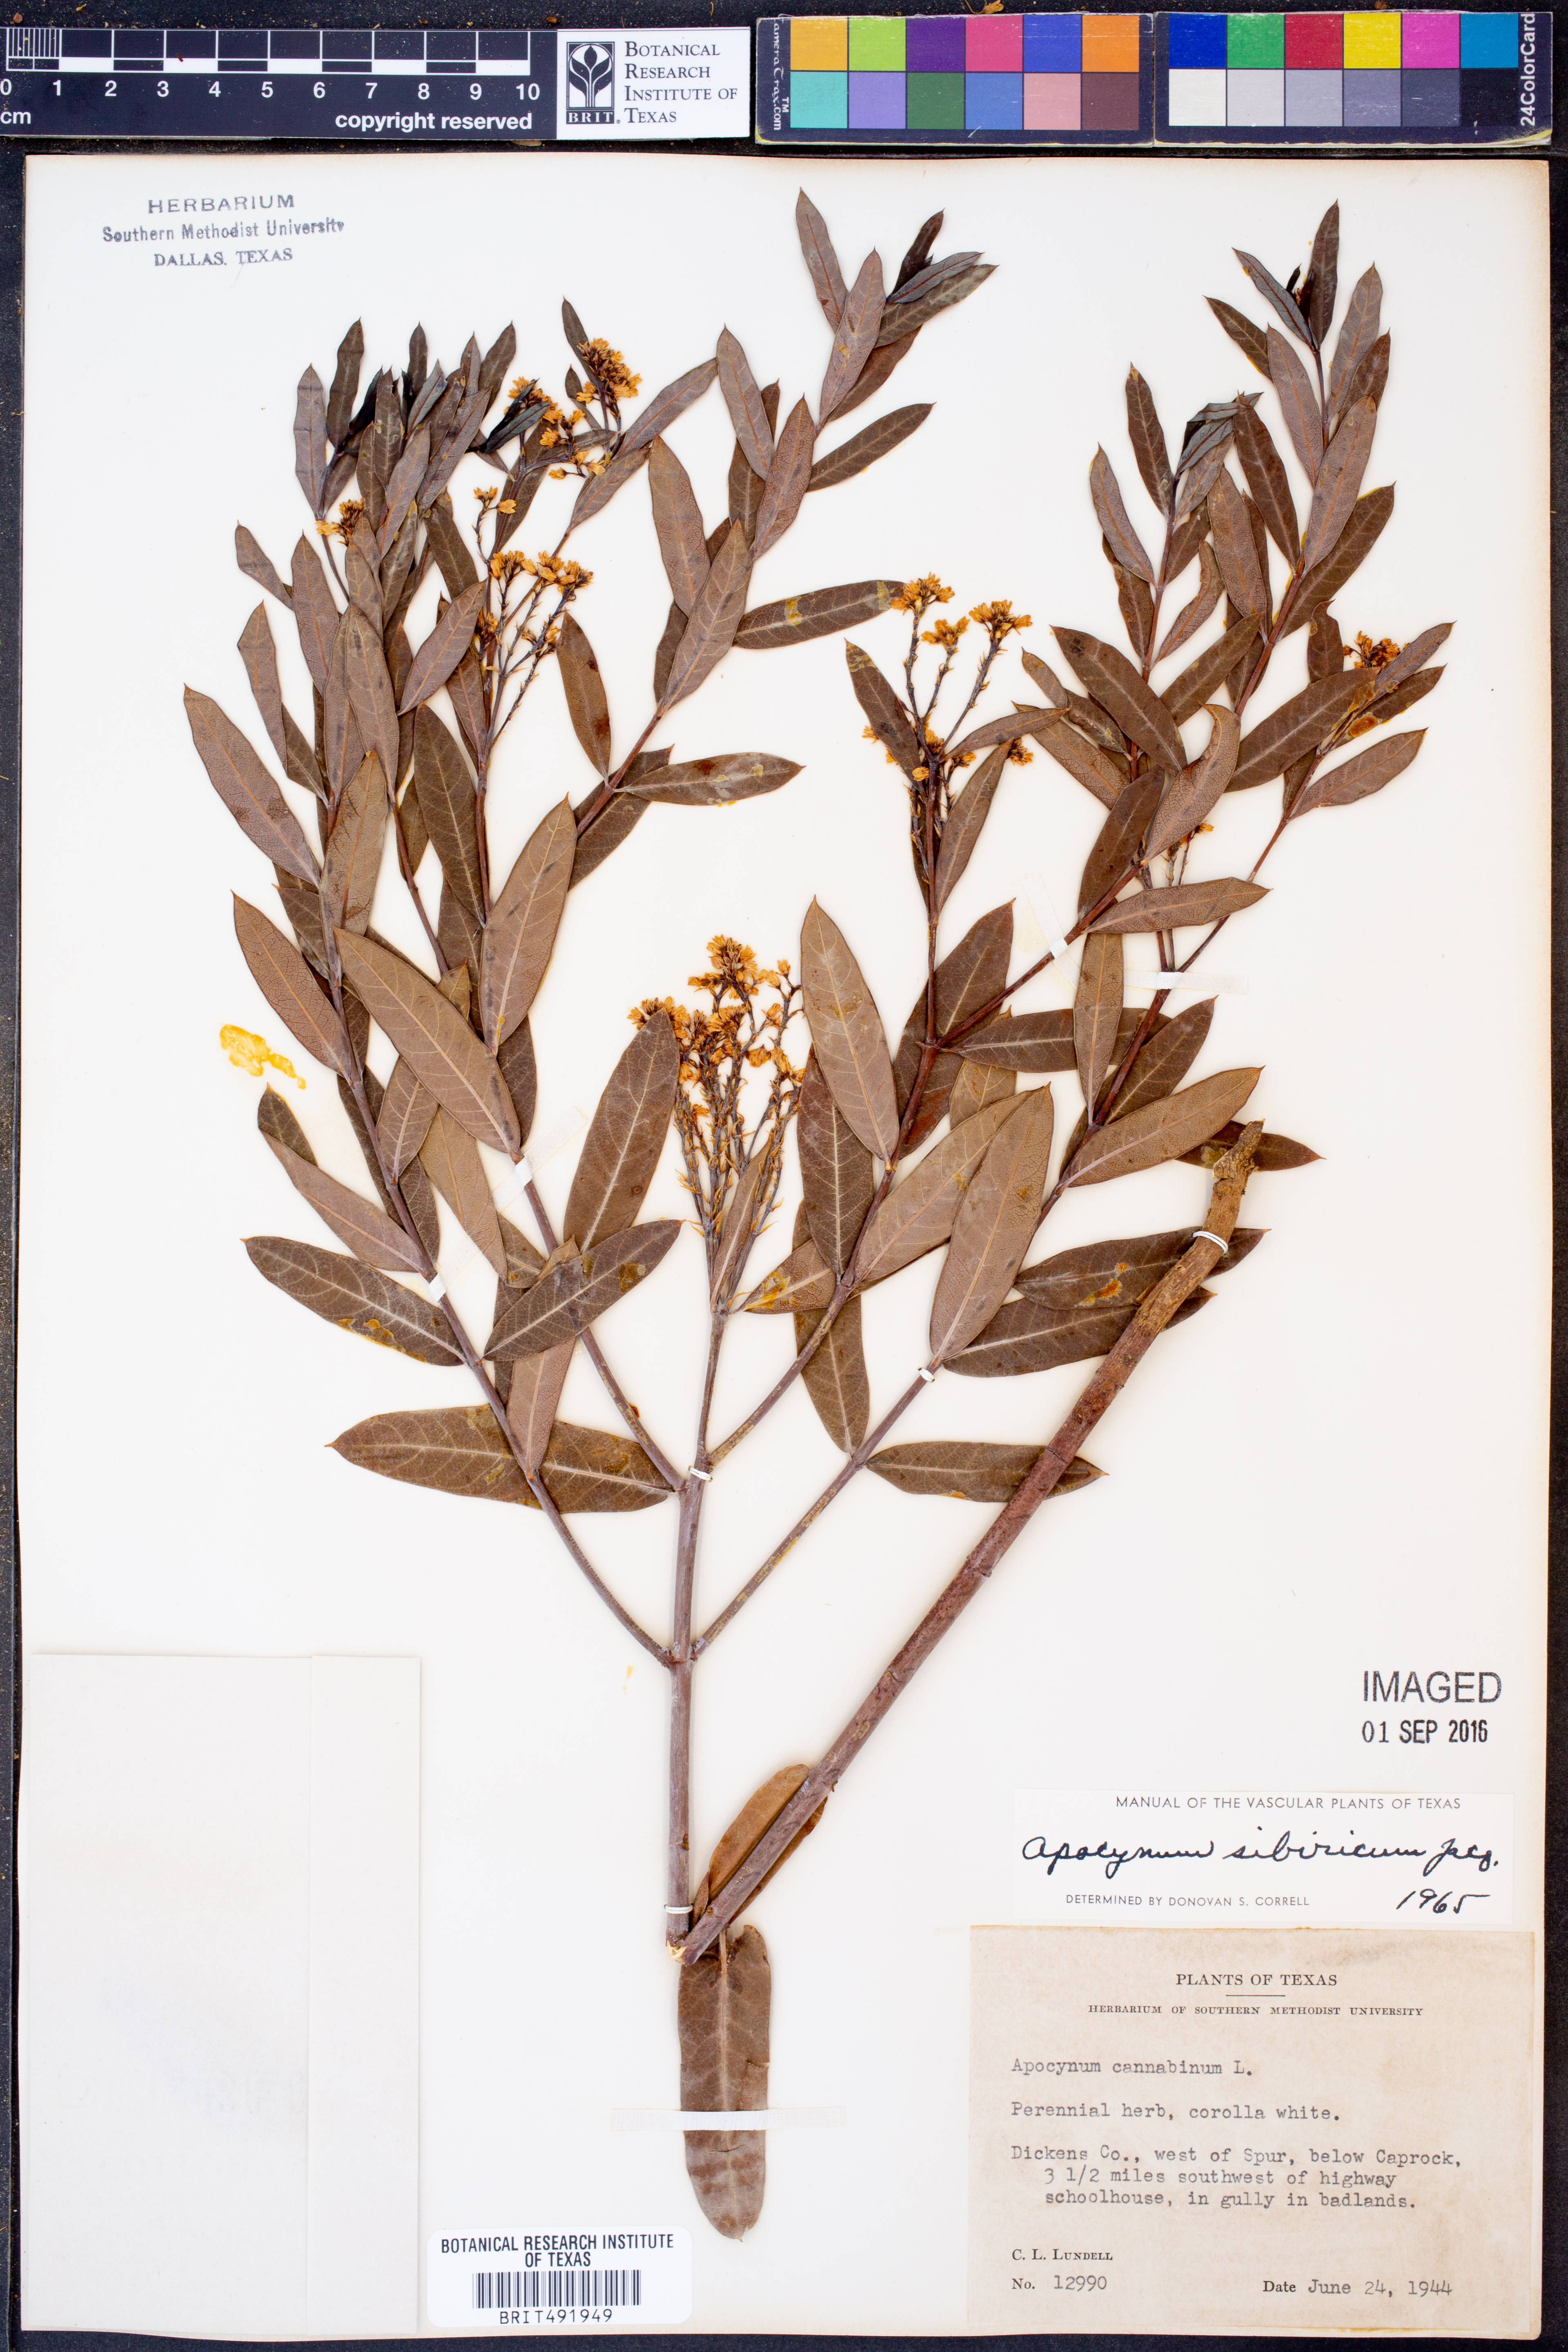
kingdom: Plantae
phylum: Tracheophyta
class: Magnoliopsida
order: Gentianales
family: Apocynaceae
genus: Apocynum
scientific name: Apocynum cannabinum
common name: Hemp dogbane
